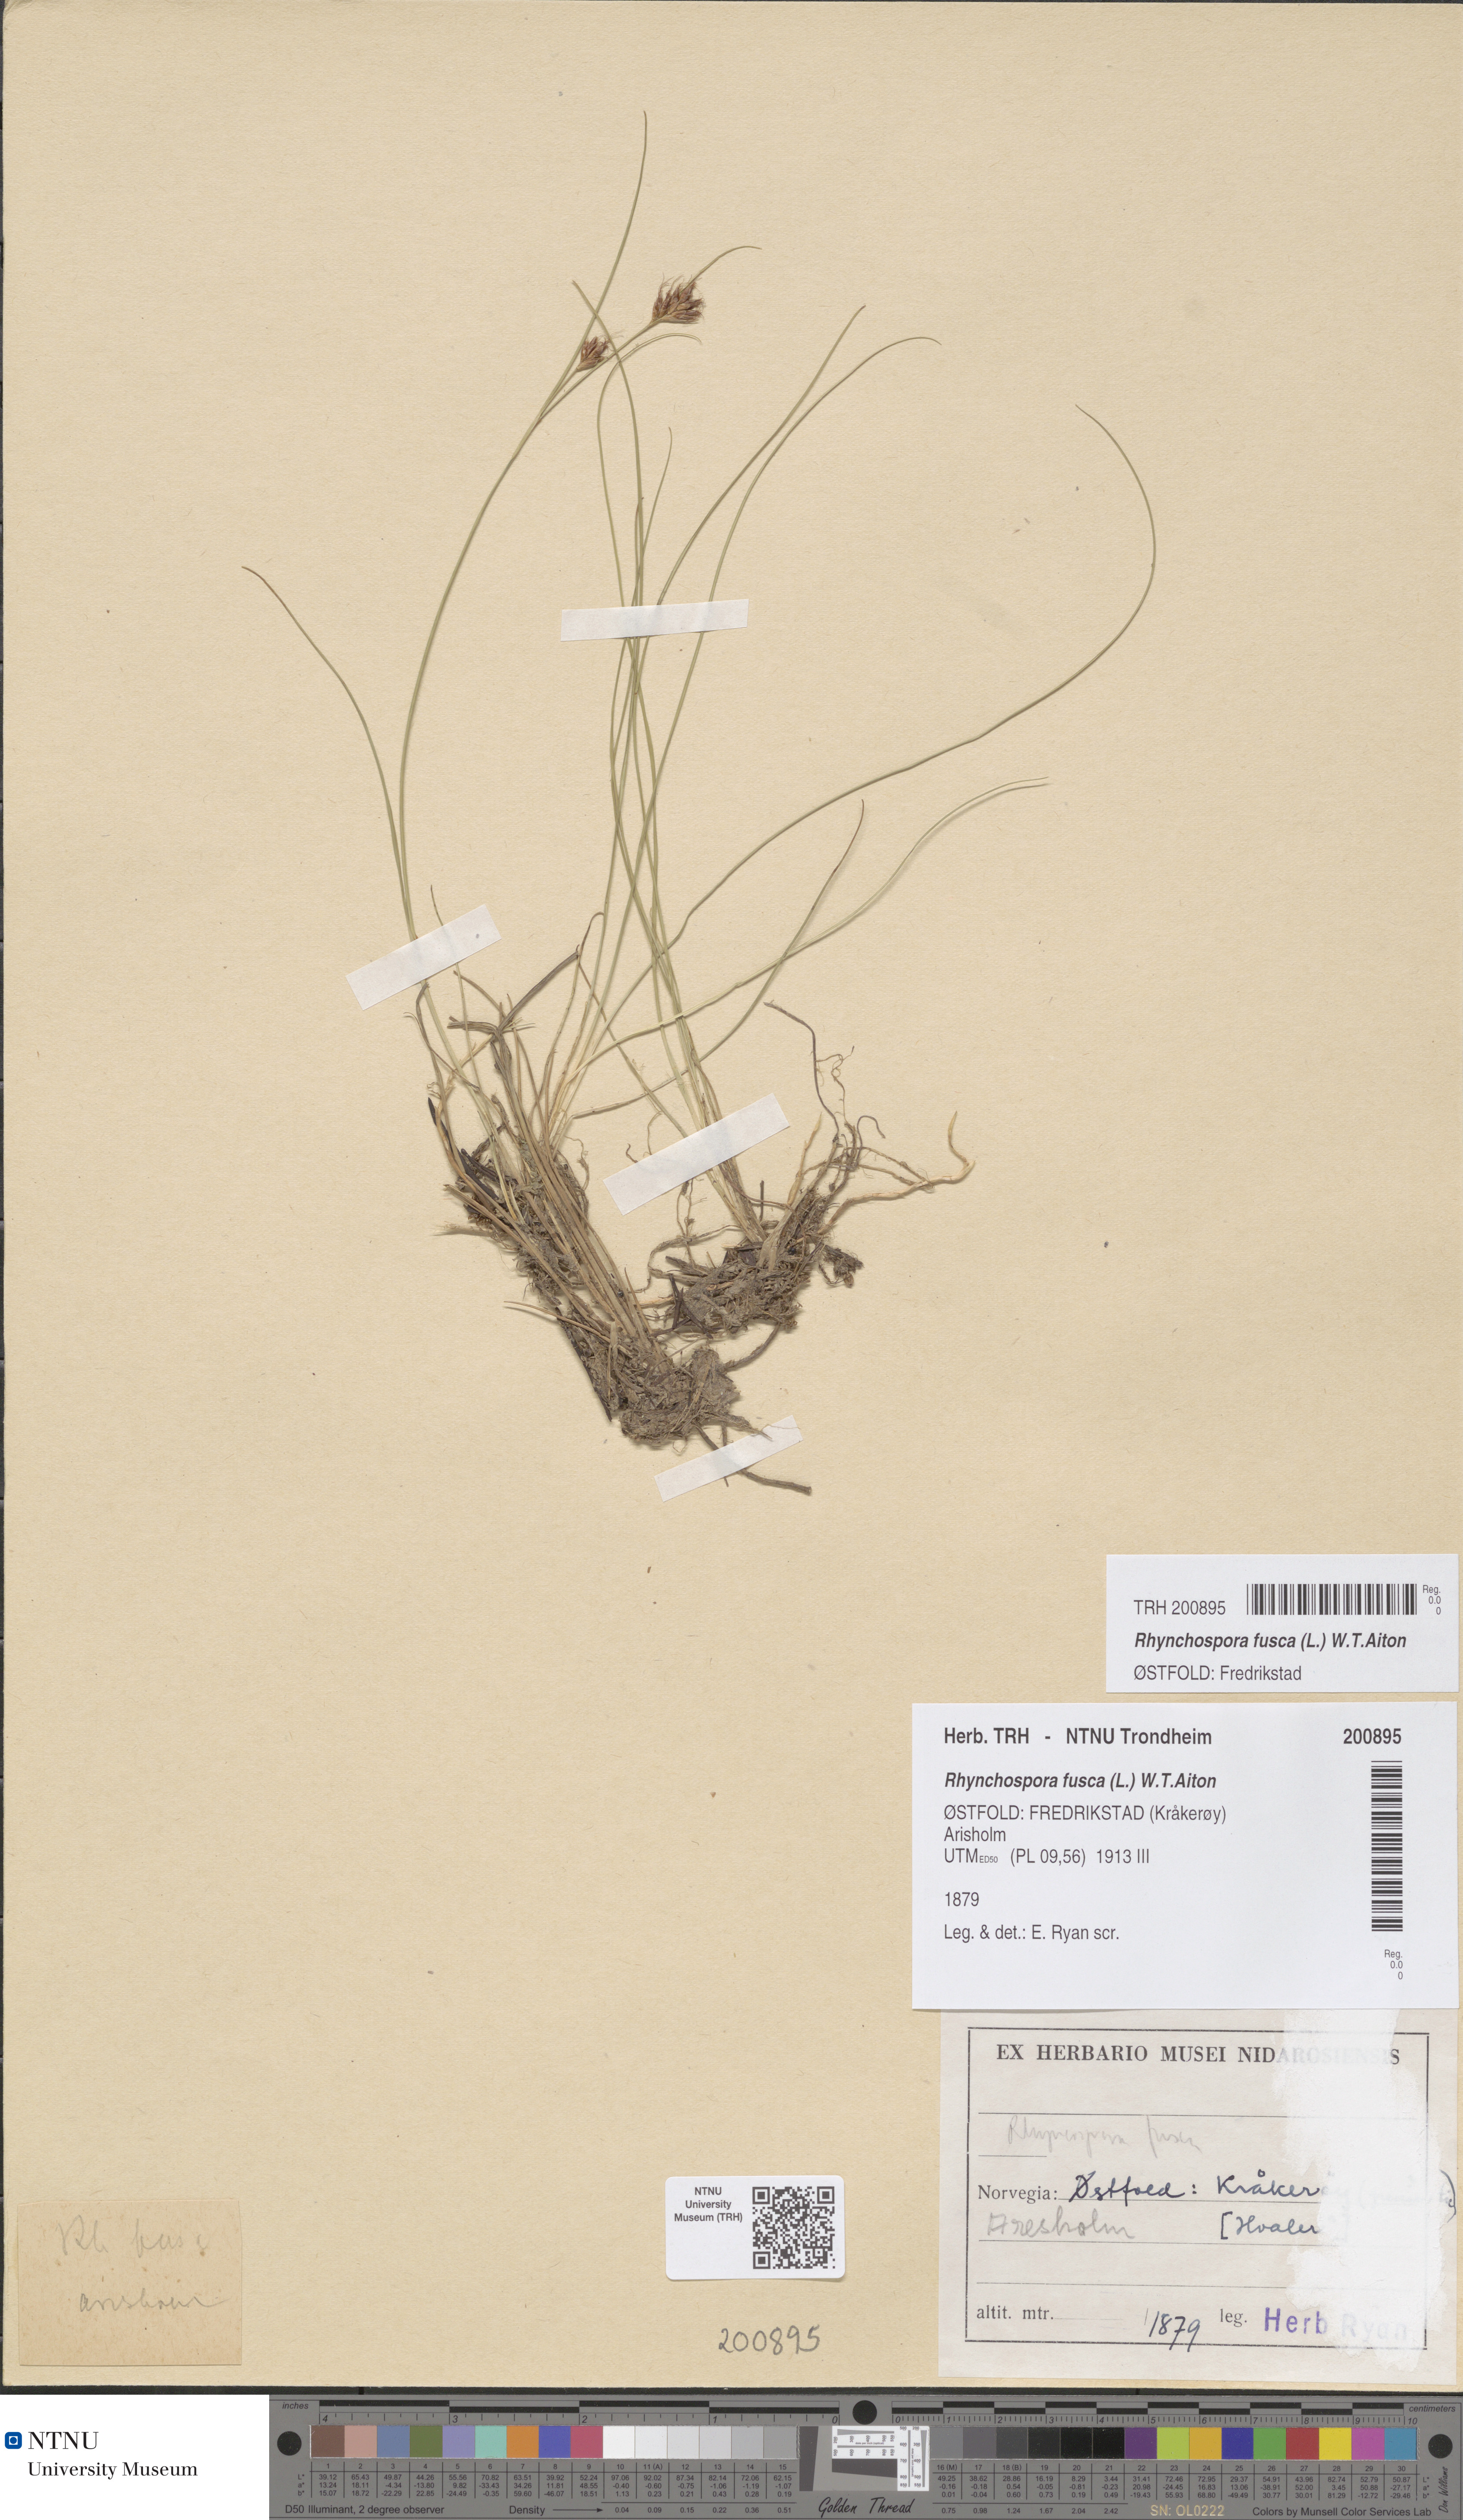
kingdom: Plantae
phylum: Tracheophyta
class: Liliopsida
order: Poales
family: Cyperaceae
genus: Rhynchospora
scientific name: Rhynchospora fusca
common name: Brown beak-sedge
